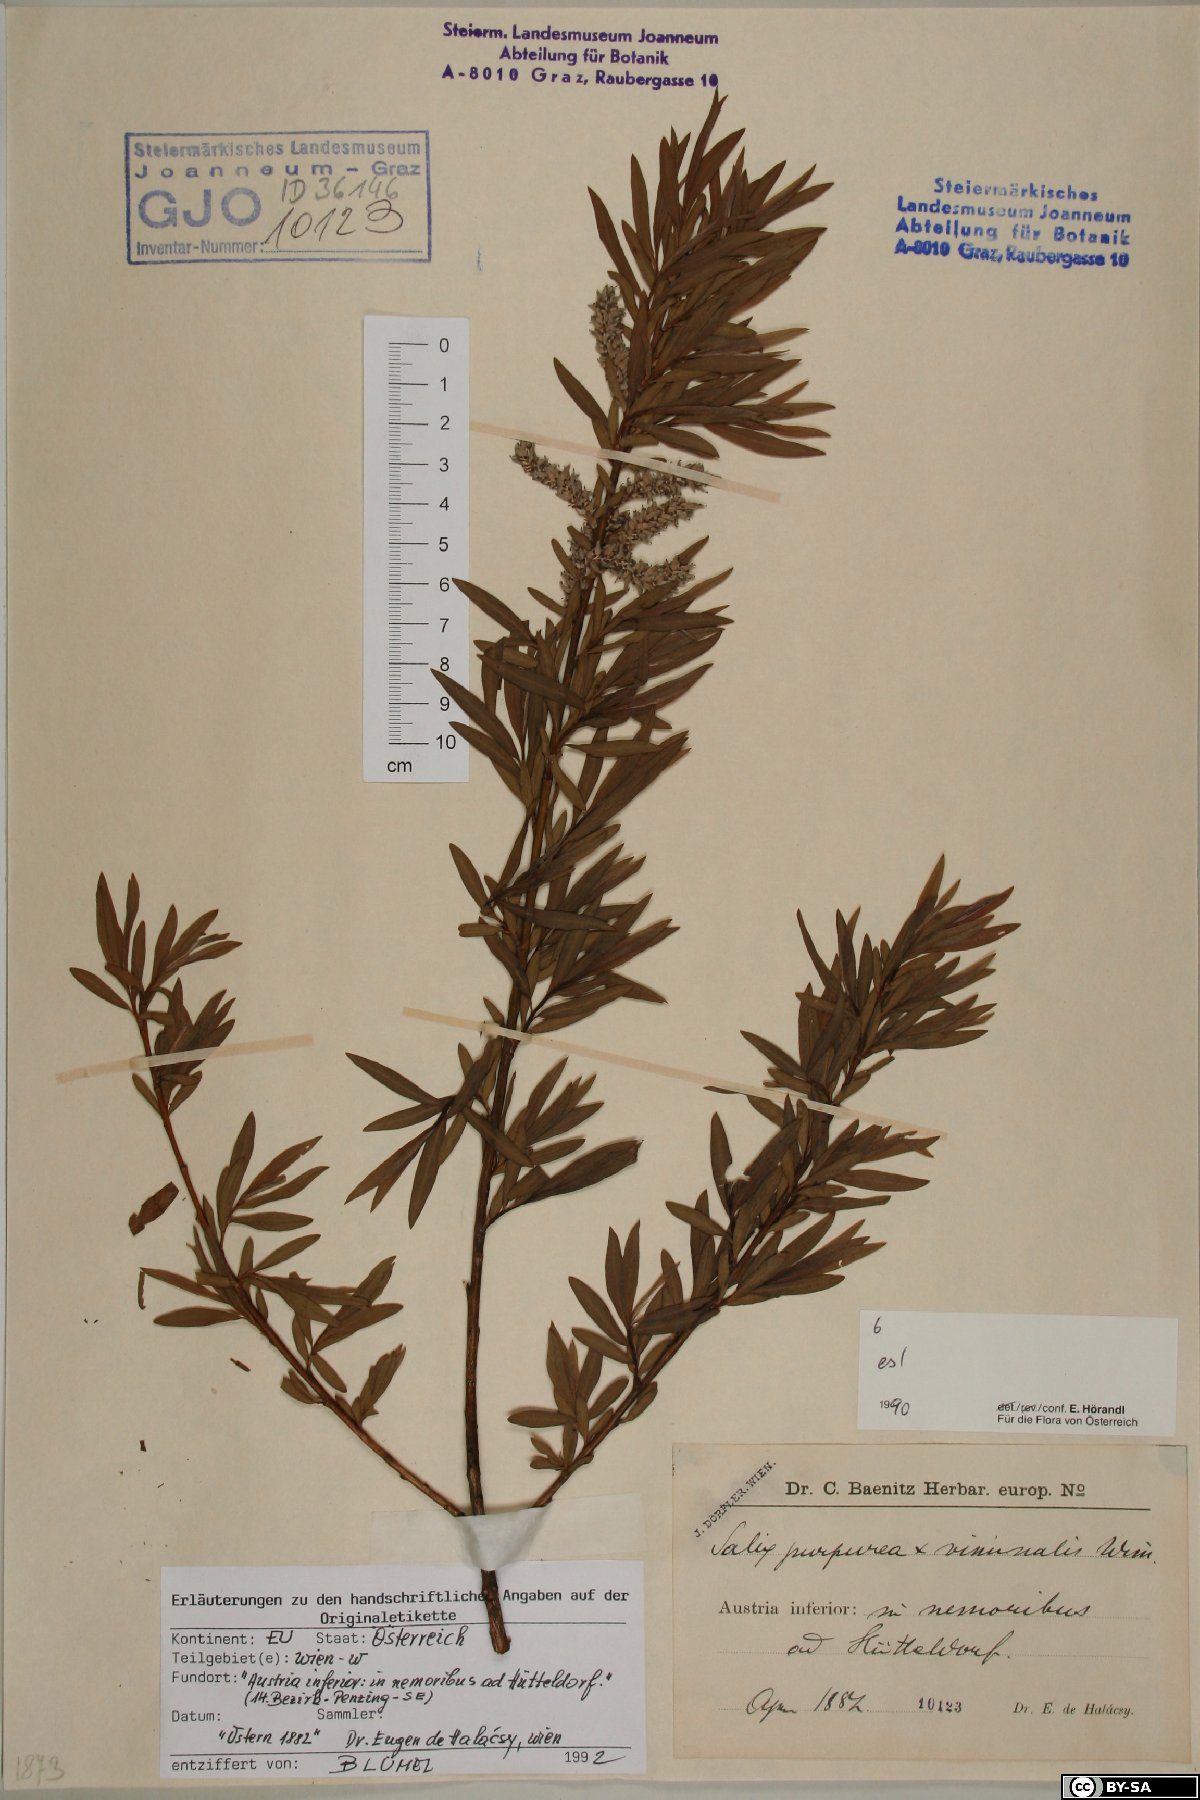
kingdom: Plantae
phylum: Tracheophyta
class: Magnoliopsida
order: Malpighiales
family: Salicaceae
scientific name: Salicaceae
